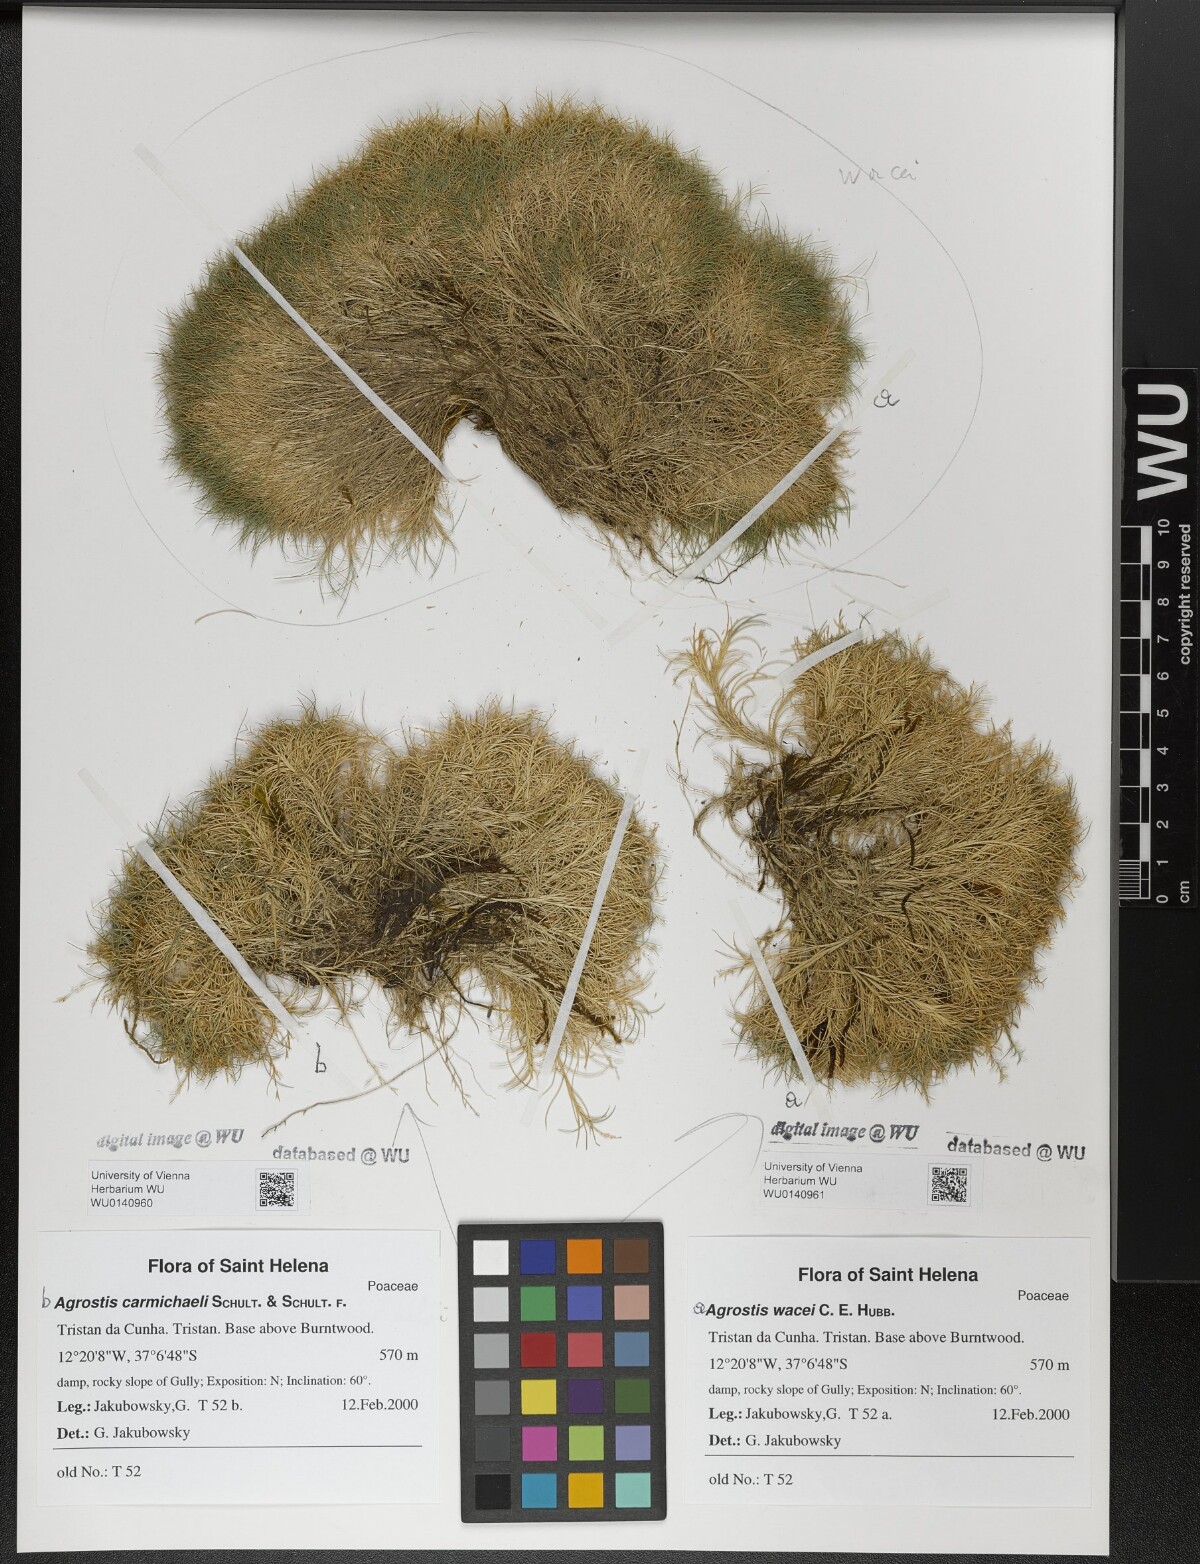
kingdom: Plantae
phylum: Tracheophyta
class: Liliopsida
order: Poales
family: Poaceae
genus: Agrostis
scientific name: Agrostis carmichaelii
